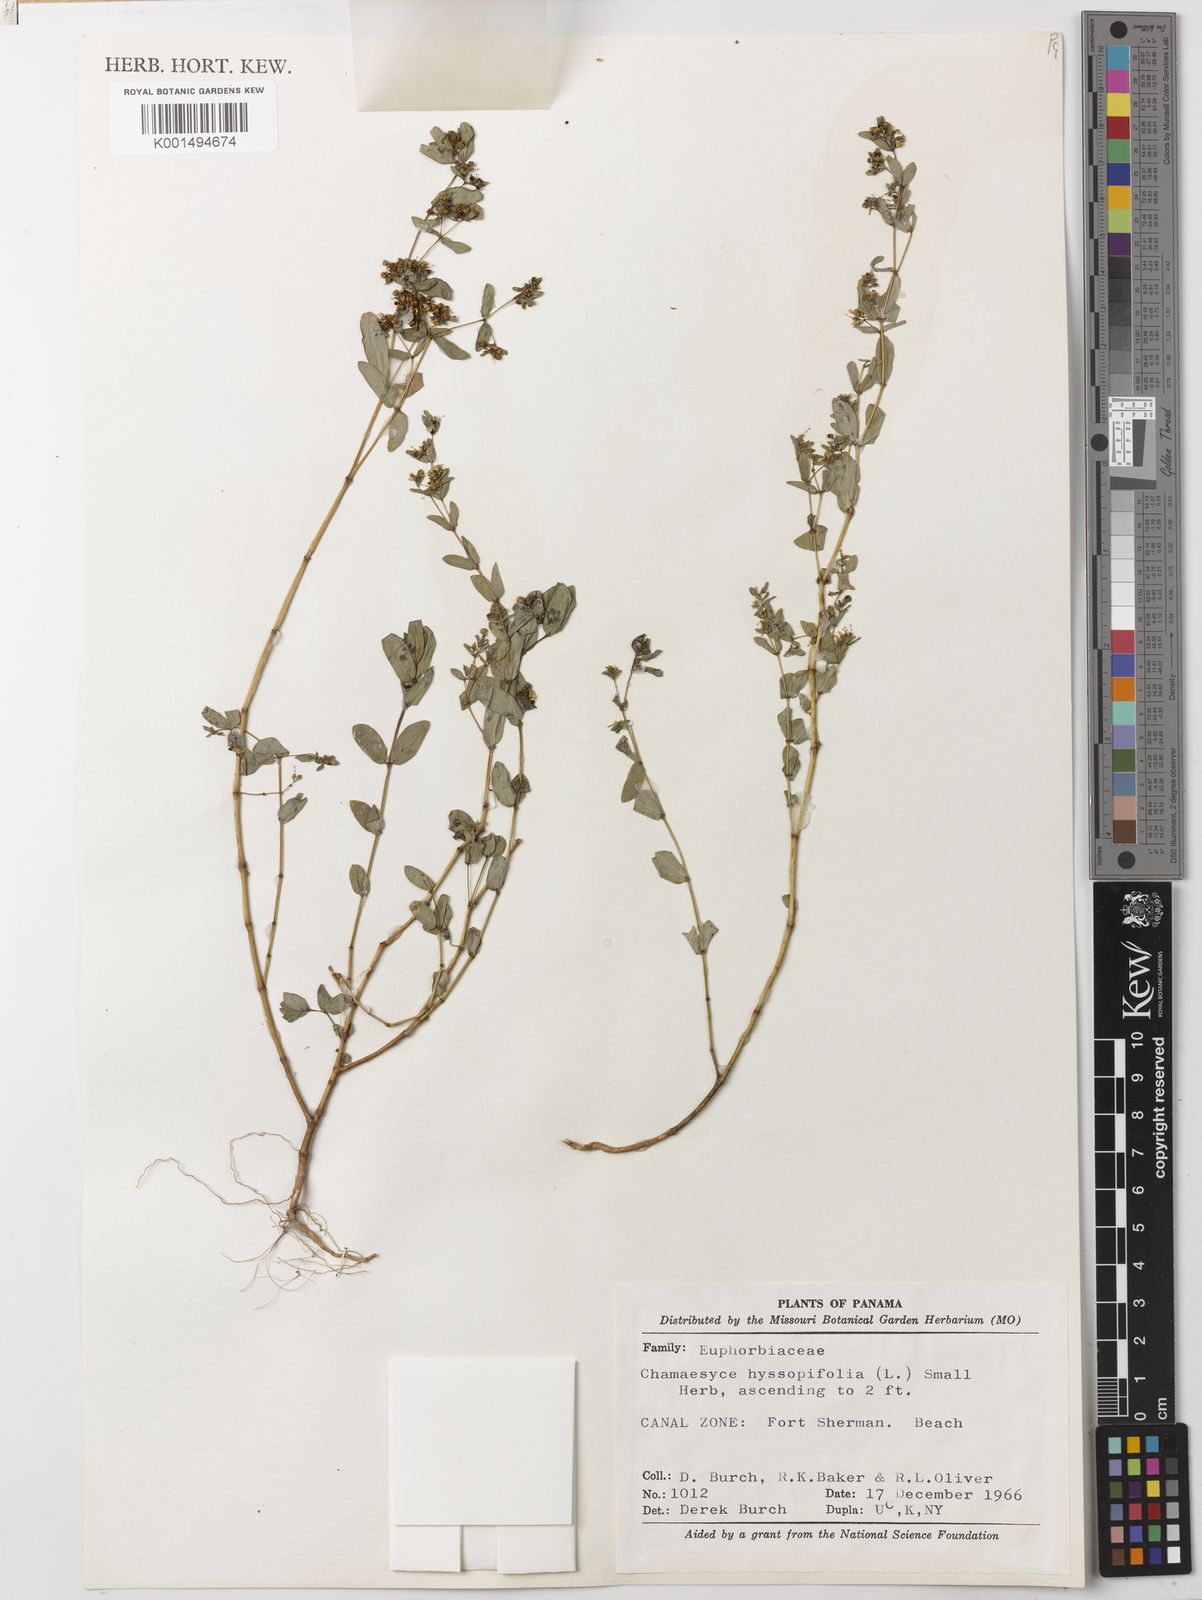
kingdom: Plantae
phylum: Tracheophyta
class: Magnoliopsida
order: Malpighiales
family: Euphorbiaceae
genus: Euphorbia
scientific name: Euphorbia hyssopifolia
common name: Hyssopleaf sandmat
